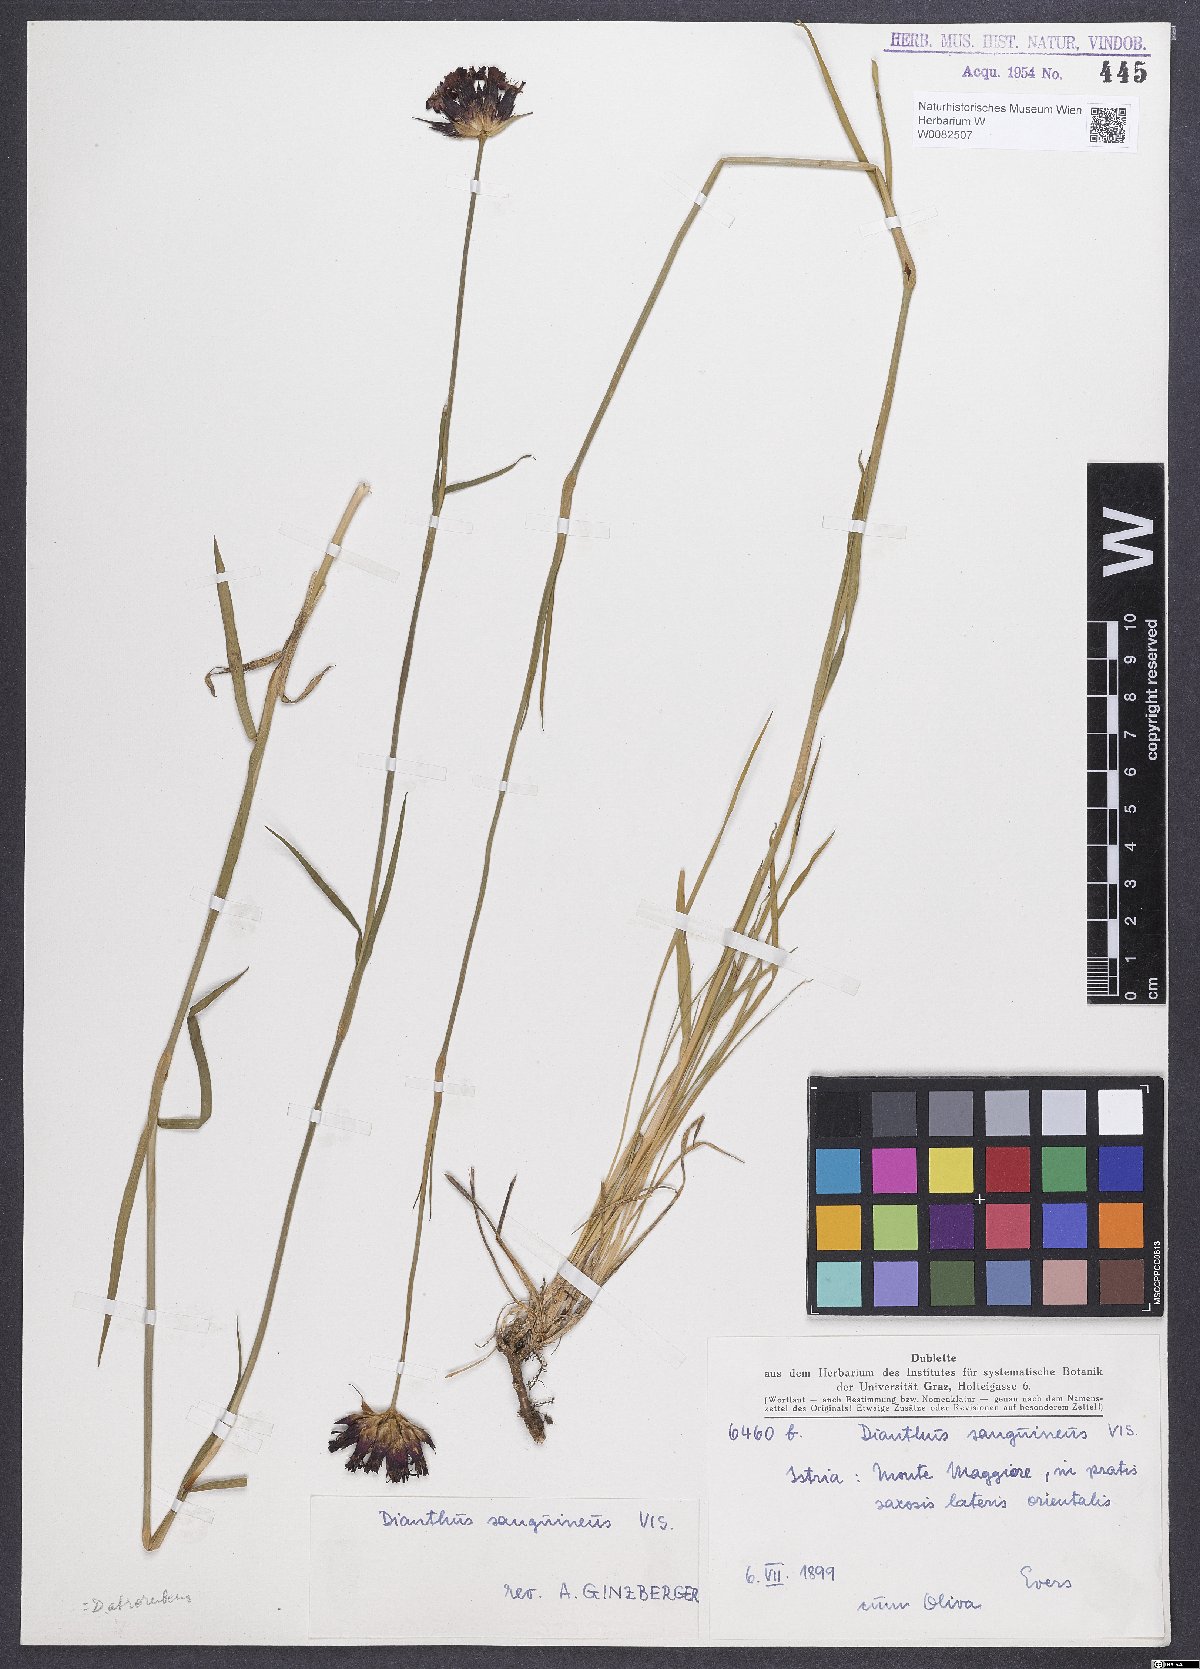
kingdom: Plantae
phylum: Tracheophyta
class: Magnoliopsida
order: Caryophyllales
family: Caryophyllaceae
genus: Dianthus
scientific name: Dianthus carthusianorum
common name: Carthusian pink
